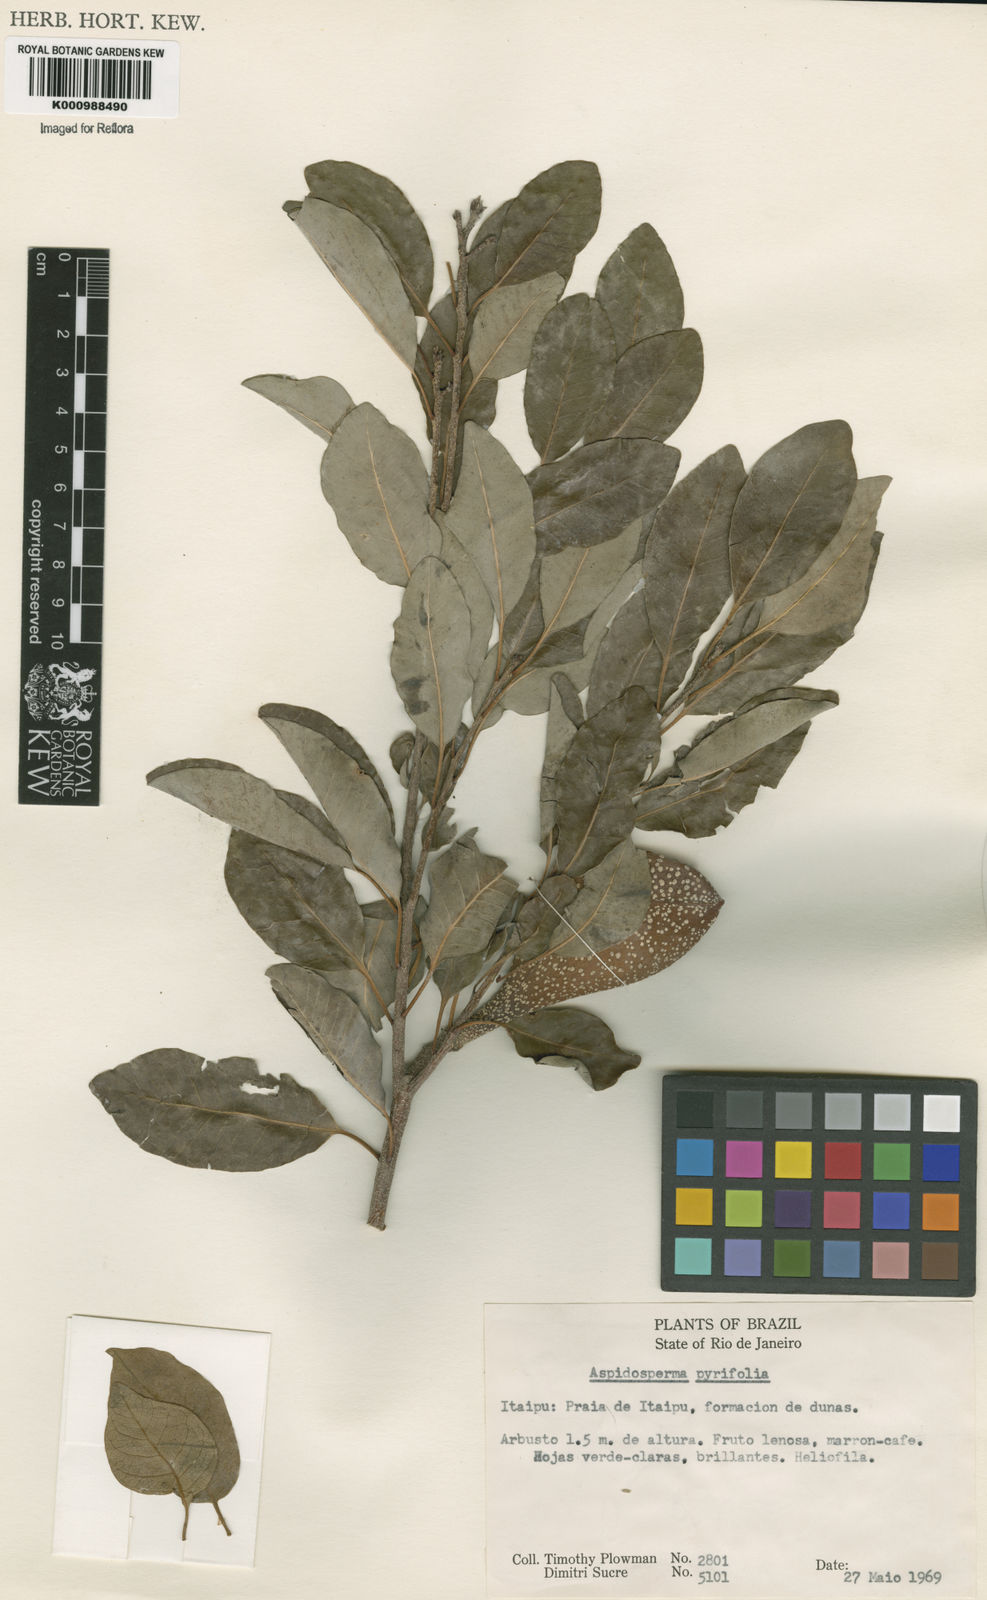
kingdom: Plantae
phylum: Tracheophyta
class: Magnoliopsida
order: Gentianales
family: Apocynaceae
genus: Aspidosperma
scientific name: Aspidosperma pyrifolium
